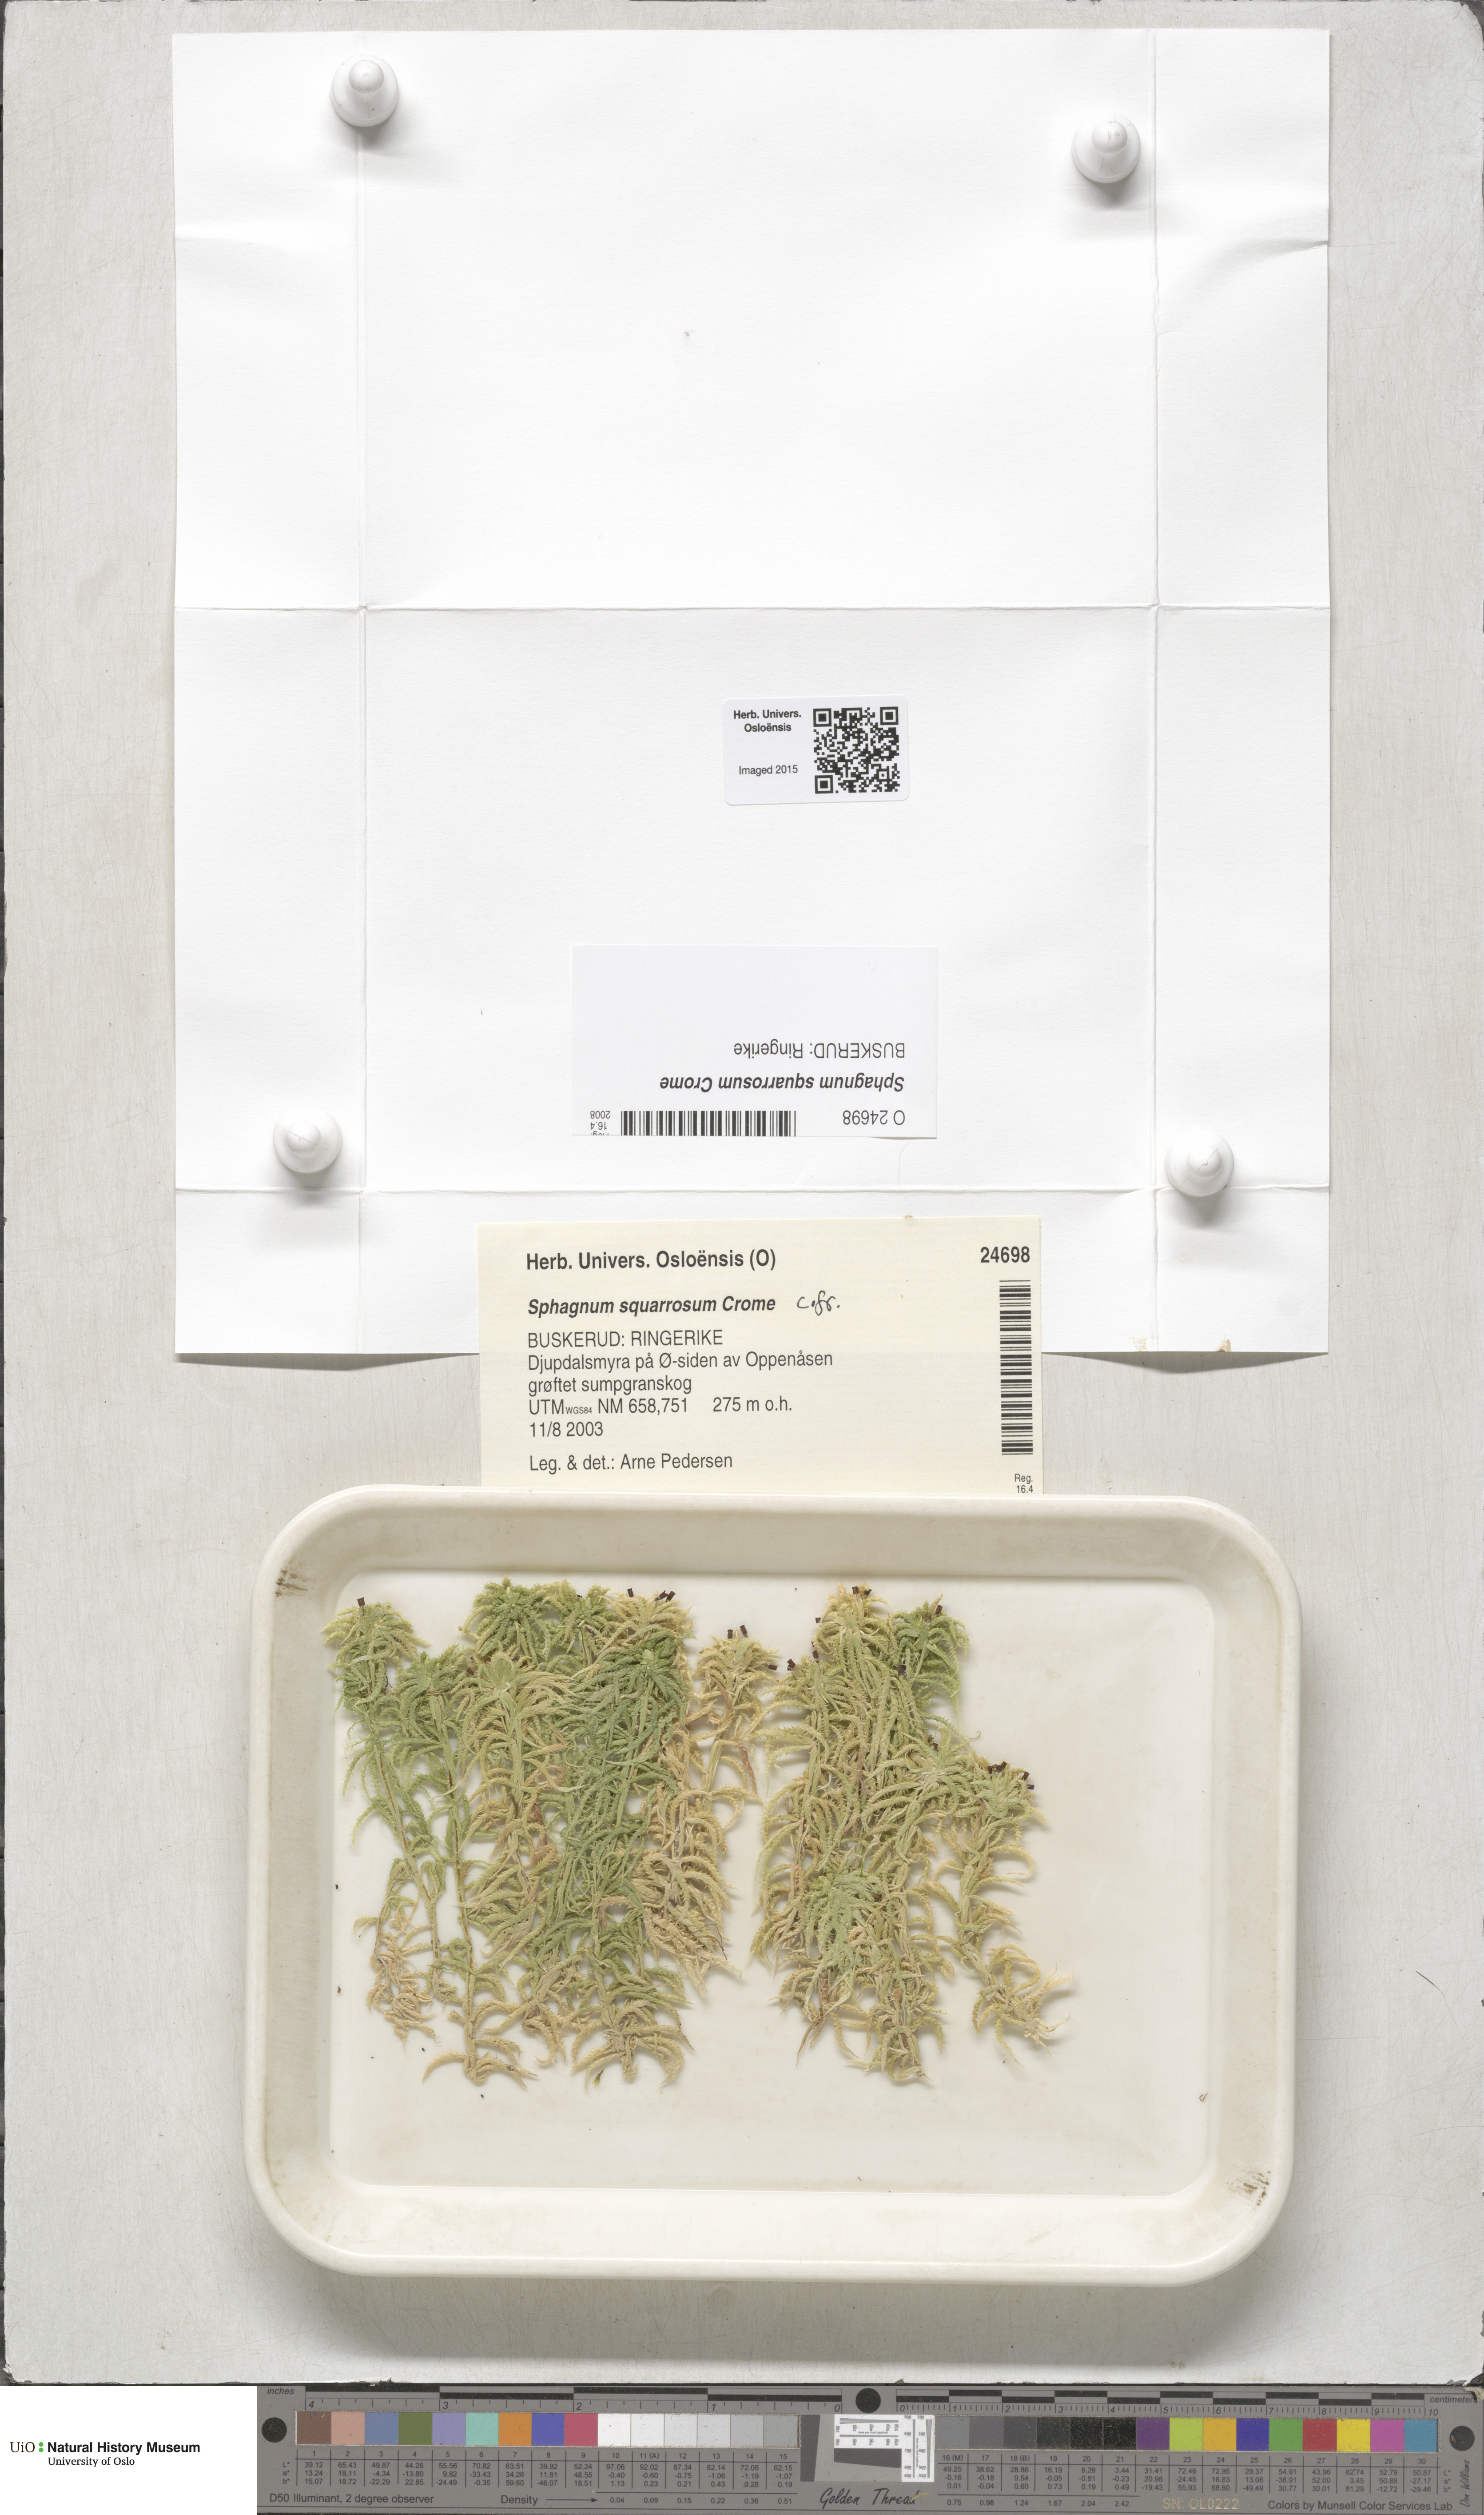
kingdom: Plantae
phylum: Bryophyta
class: Sphagnopsida
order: Sphagnales
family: Sphagnaceae
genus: Sphagnum
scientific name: Sphagnum squarrosum
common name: Shaggy peat moss
